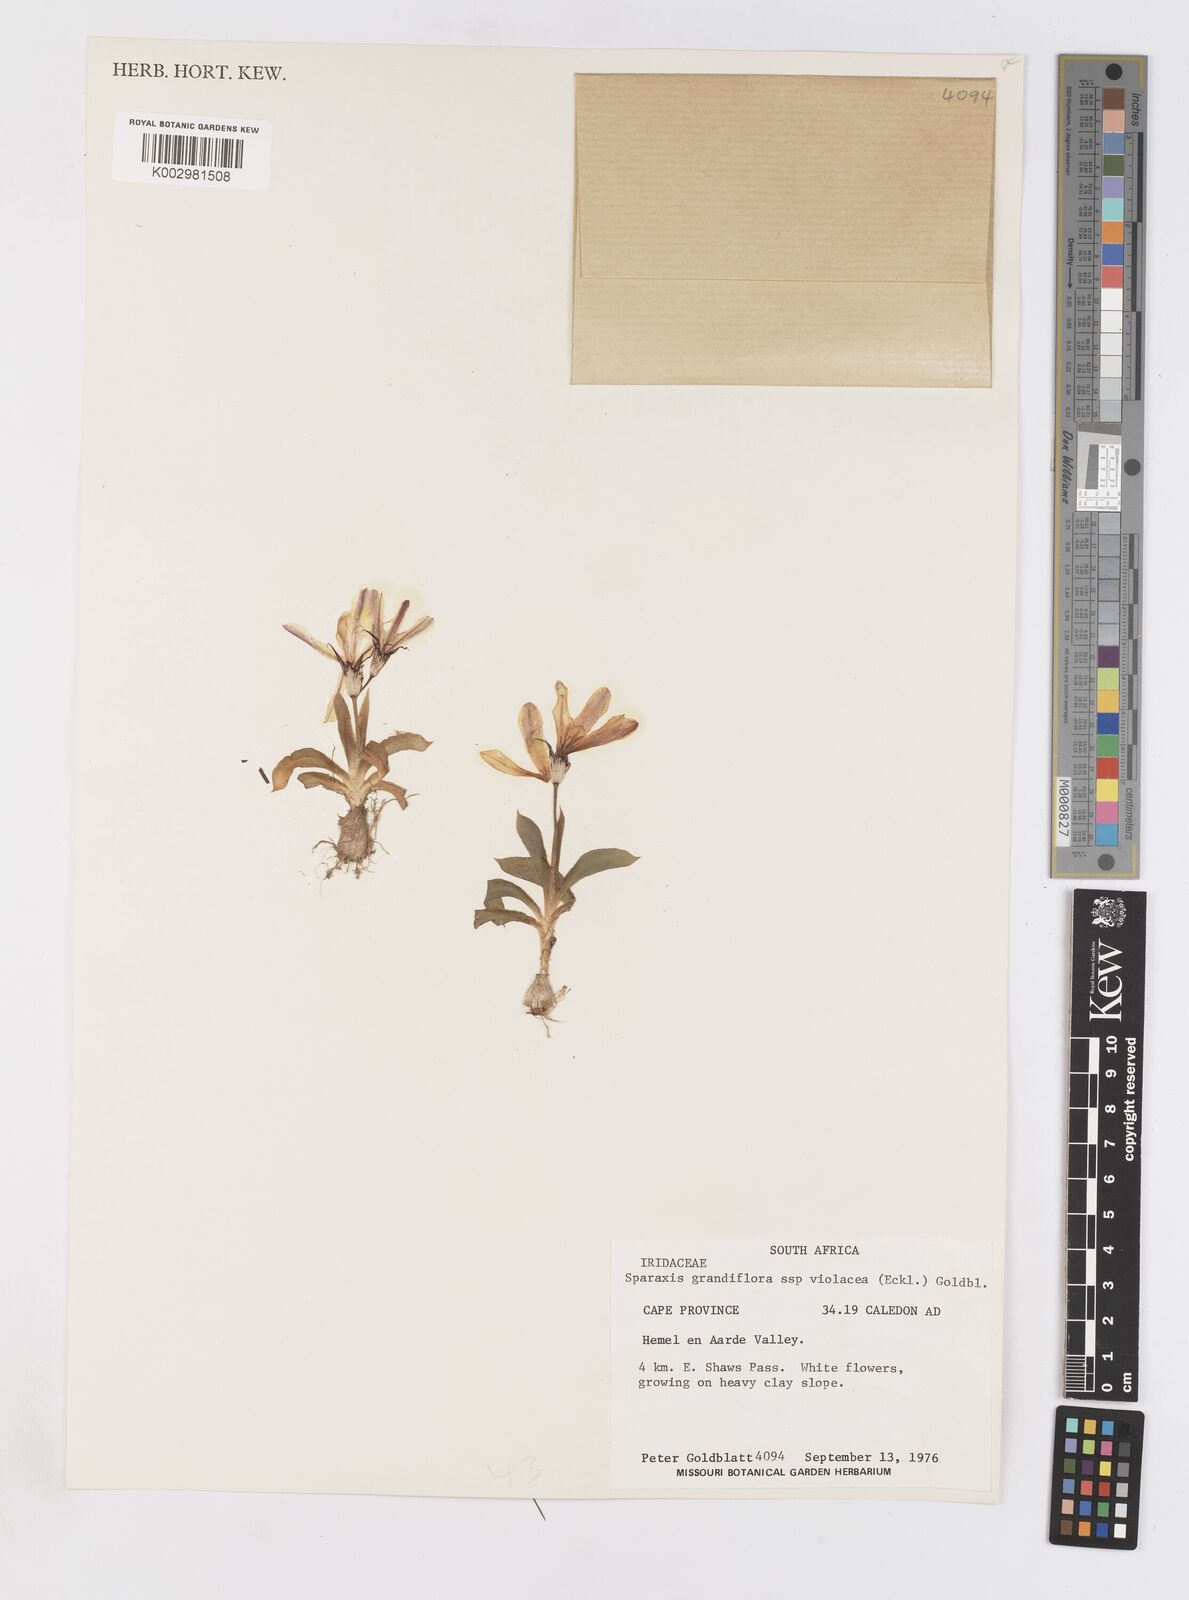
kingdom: Plantae
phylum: Tracheophyta
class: Liliopsida
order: Asparagales
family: Iridaceae
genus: Sparaxis
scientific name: Sparaxis grandiflora
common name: Plain harlequin-flower
